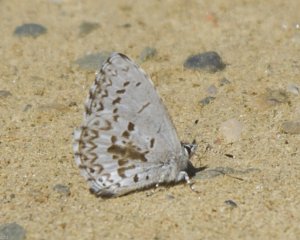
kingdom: Animalia
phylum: Arthropoda
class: Insecta
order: Lepidoptera
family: Lycaenidae
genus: Celastrina
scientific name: Celastrina lucia
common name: Northern Spring Azure
